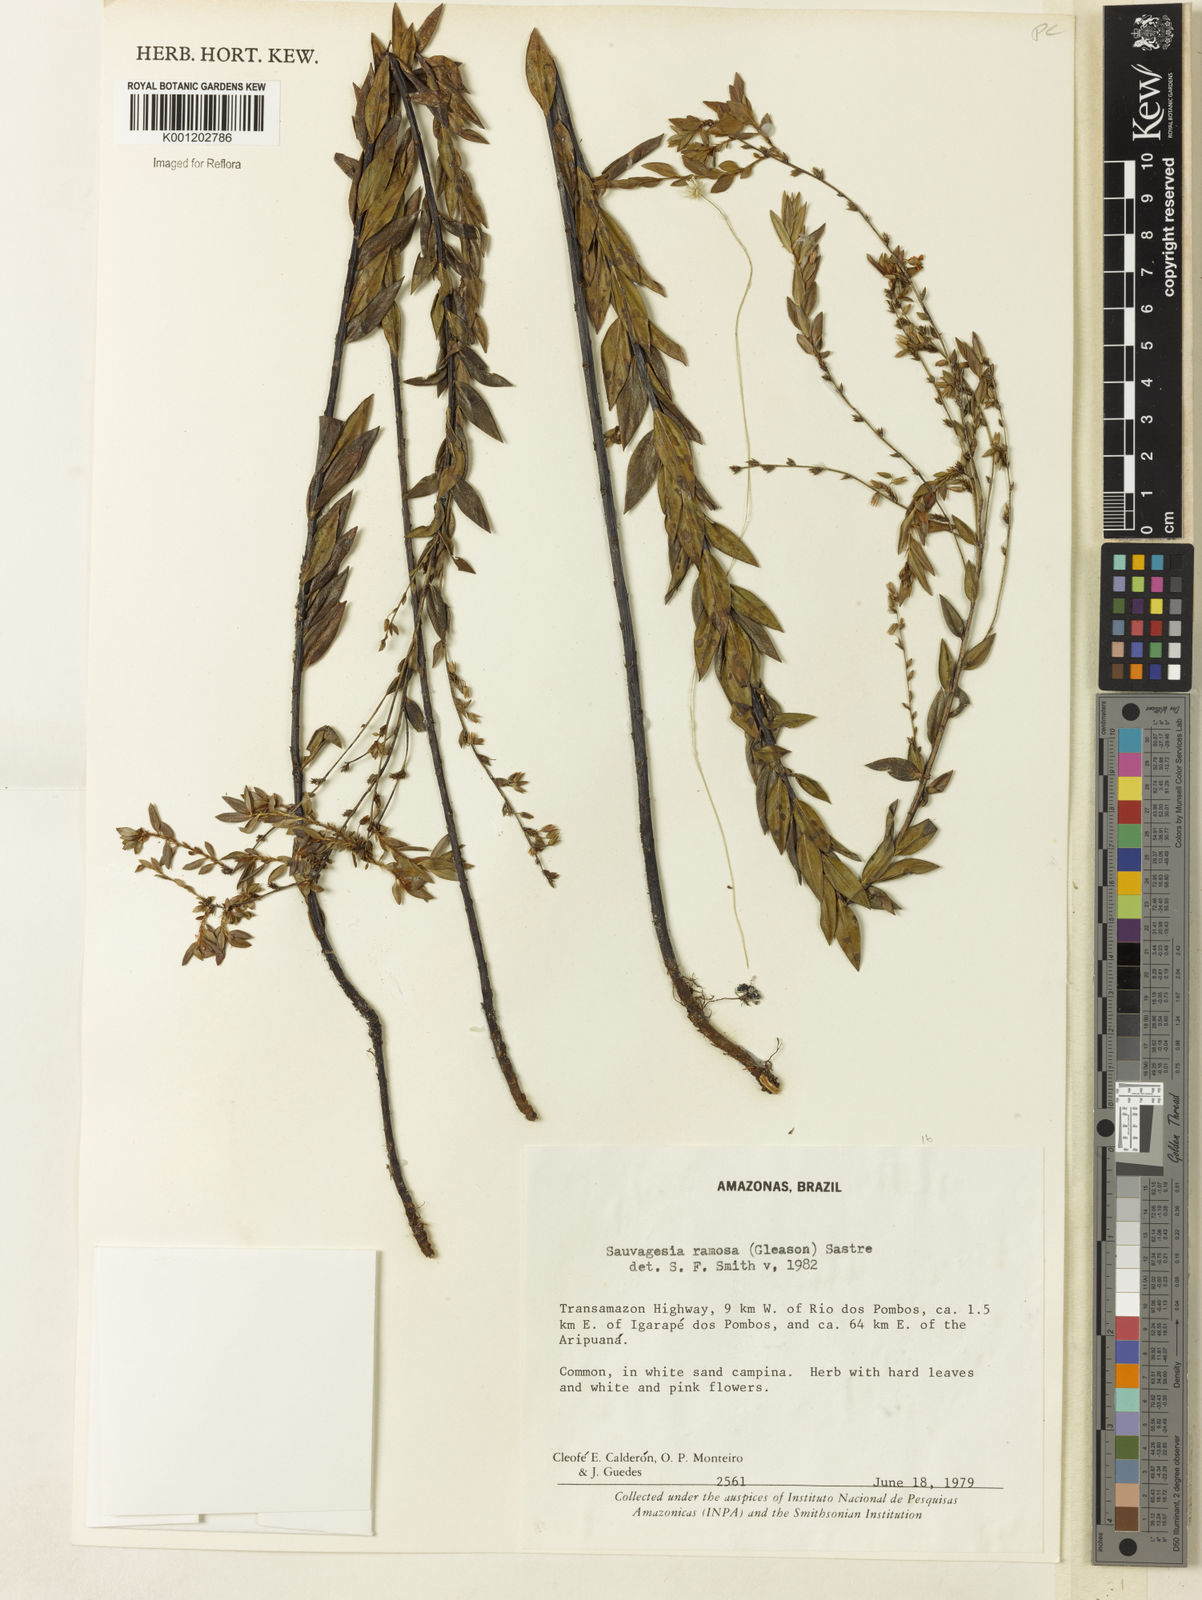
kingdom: Plantae
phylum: Tracheophyta
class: Magnoliopsida
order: Malpighiales
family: Ochnaceae
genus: Sauvagesia
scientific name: Sauvagesia ramosa
